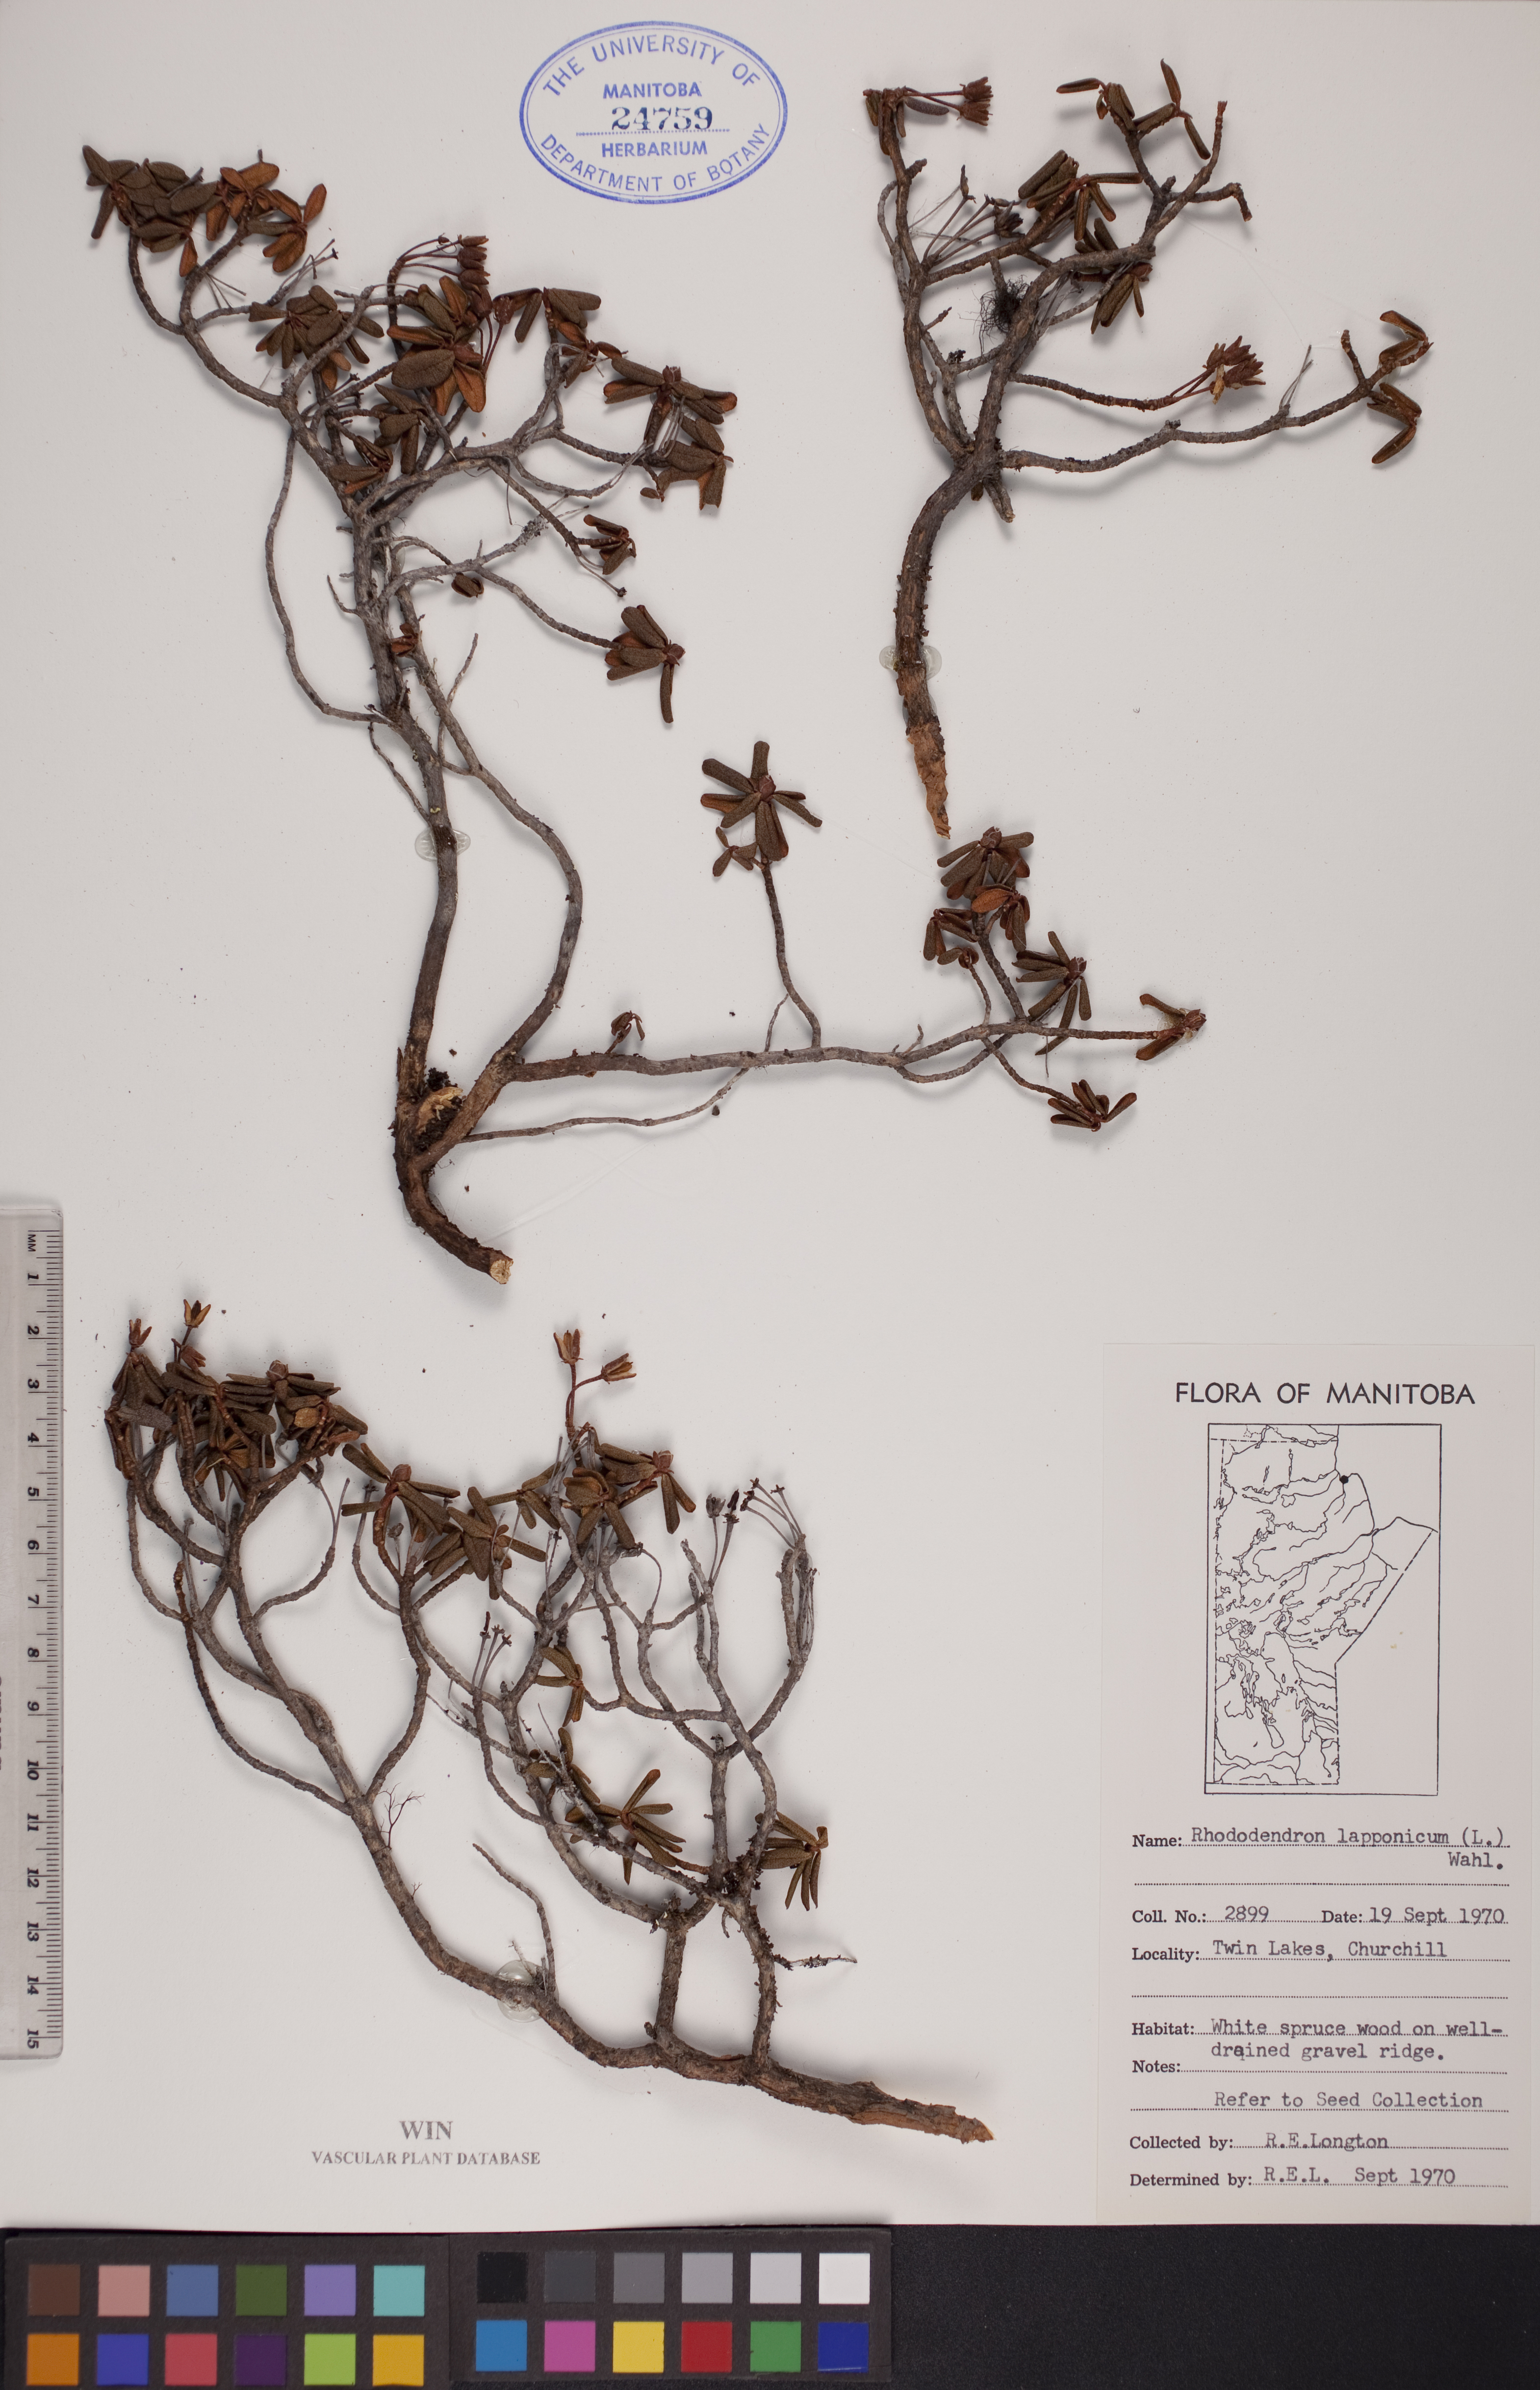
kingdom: Plantae
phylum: Tracheophyta
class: Magnoliopsida
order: Ericales
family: Ericaceae
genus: Rhododendron
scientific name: Rhododendron lapponicum
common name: Lapland rhododendron
